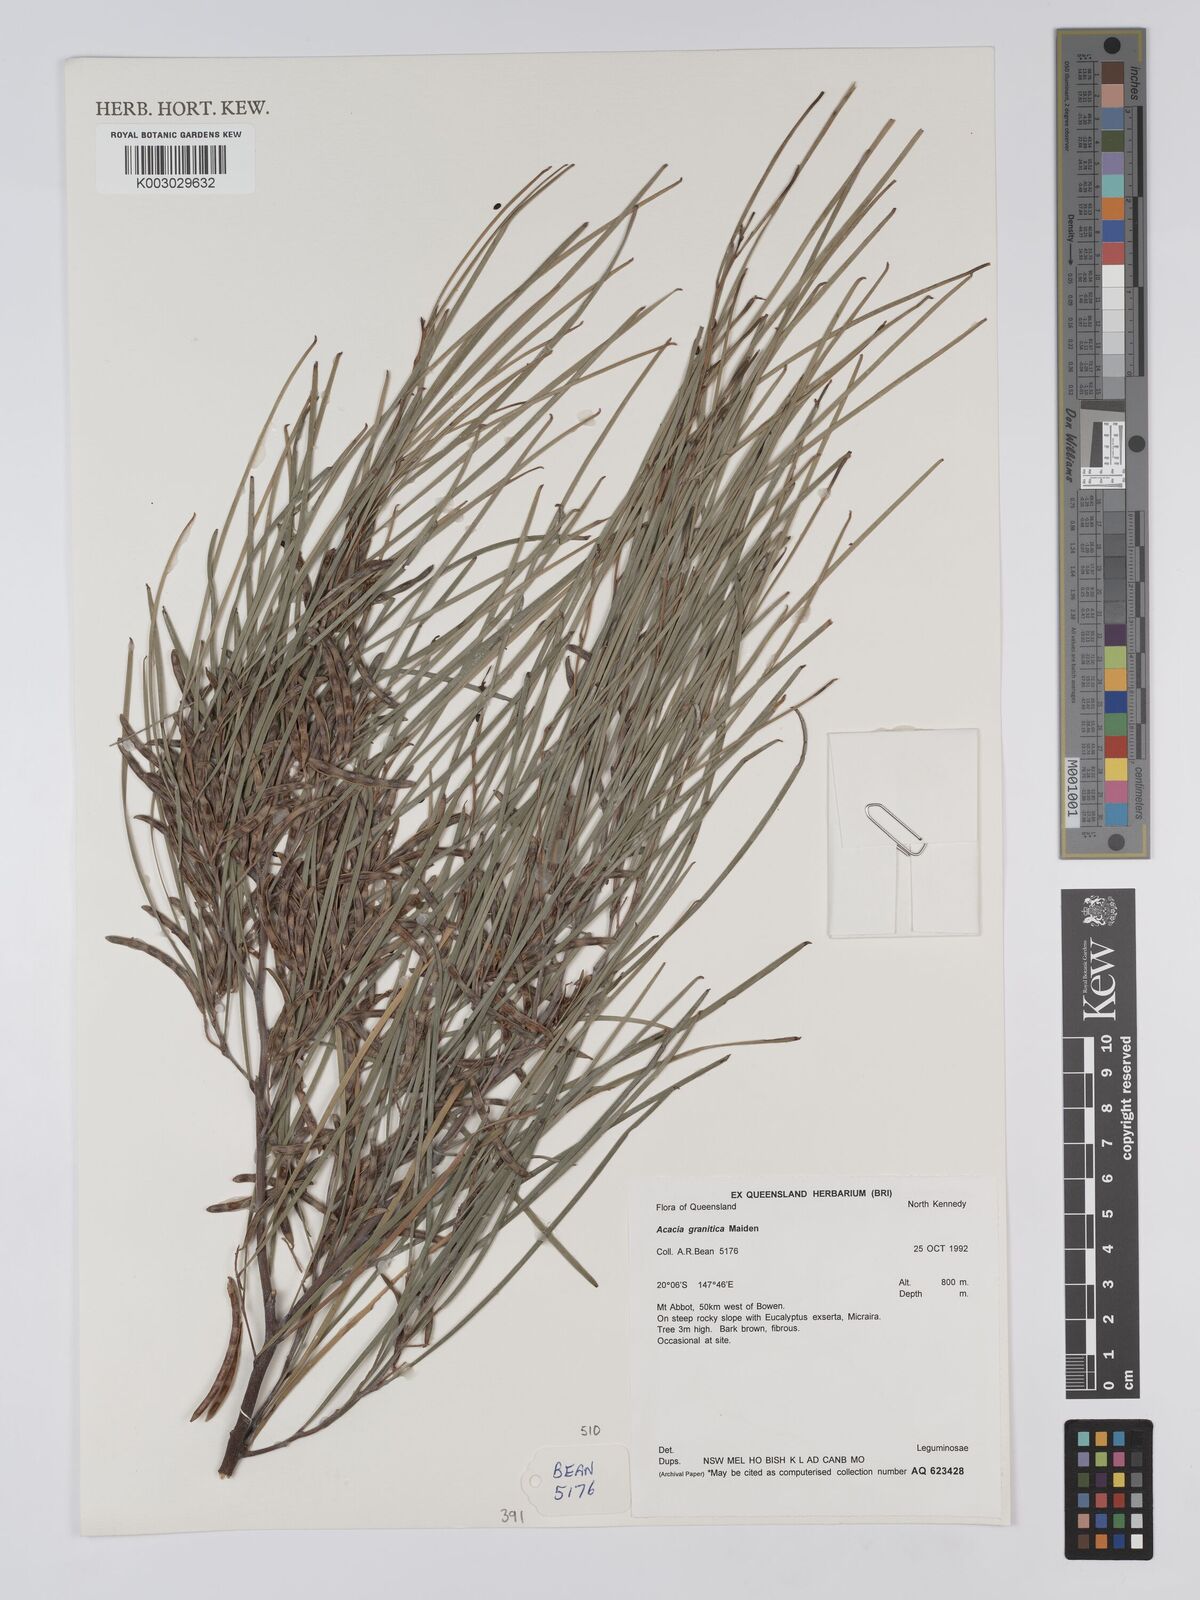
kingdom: Plantae
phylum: Tracheophyta
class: Magnoliopsida
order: Fabales
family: Fabaceae
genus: Acacia
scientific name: Acacia granitica
